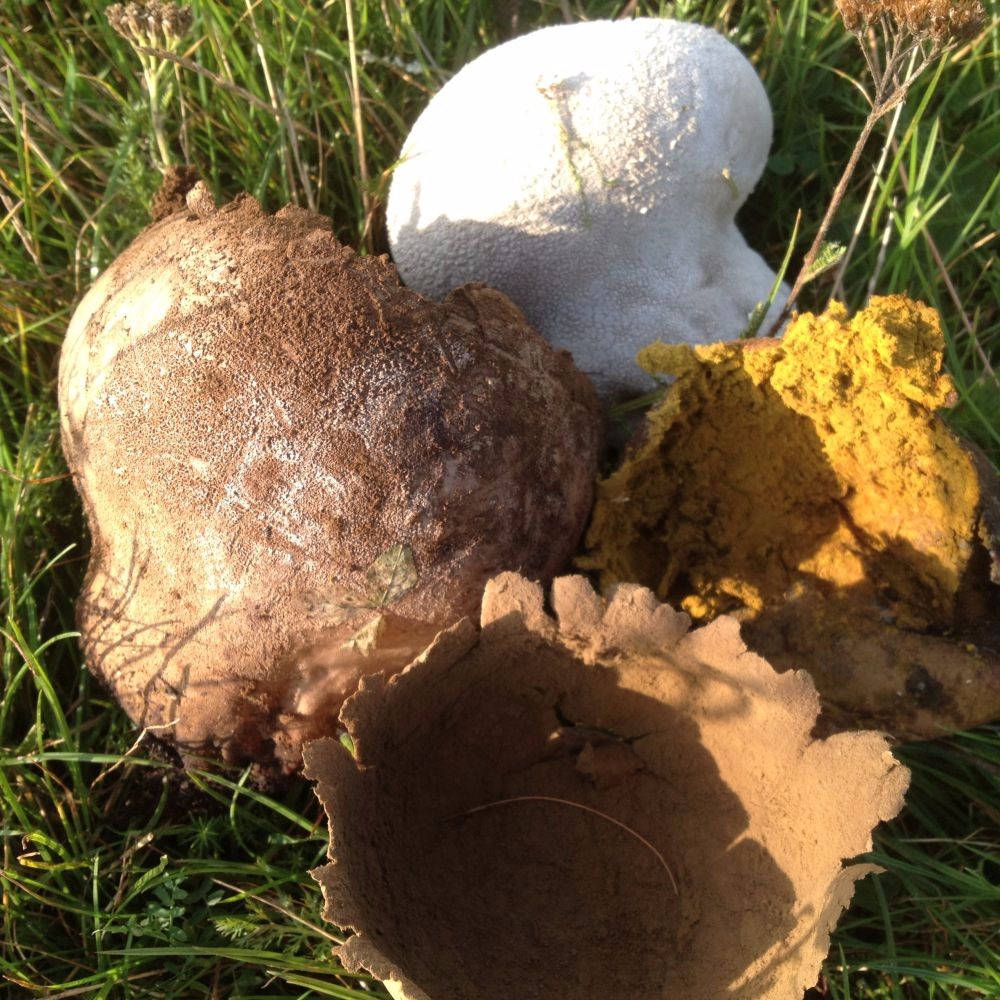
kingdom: Fungi
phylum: Basidiomycota
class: Agaricomycetes
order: Agaricales
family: Lycoperdaceae
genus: Bovistella
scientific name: Bovistella utriformis
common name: skællet støvbold
